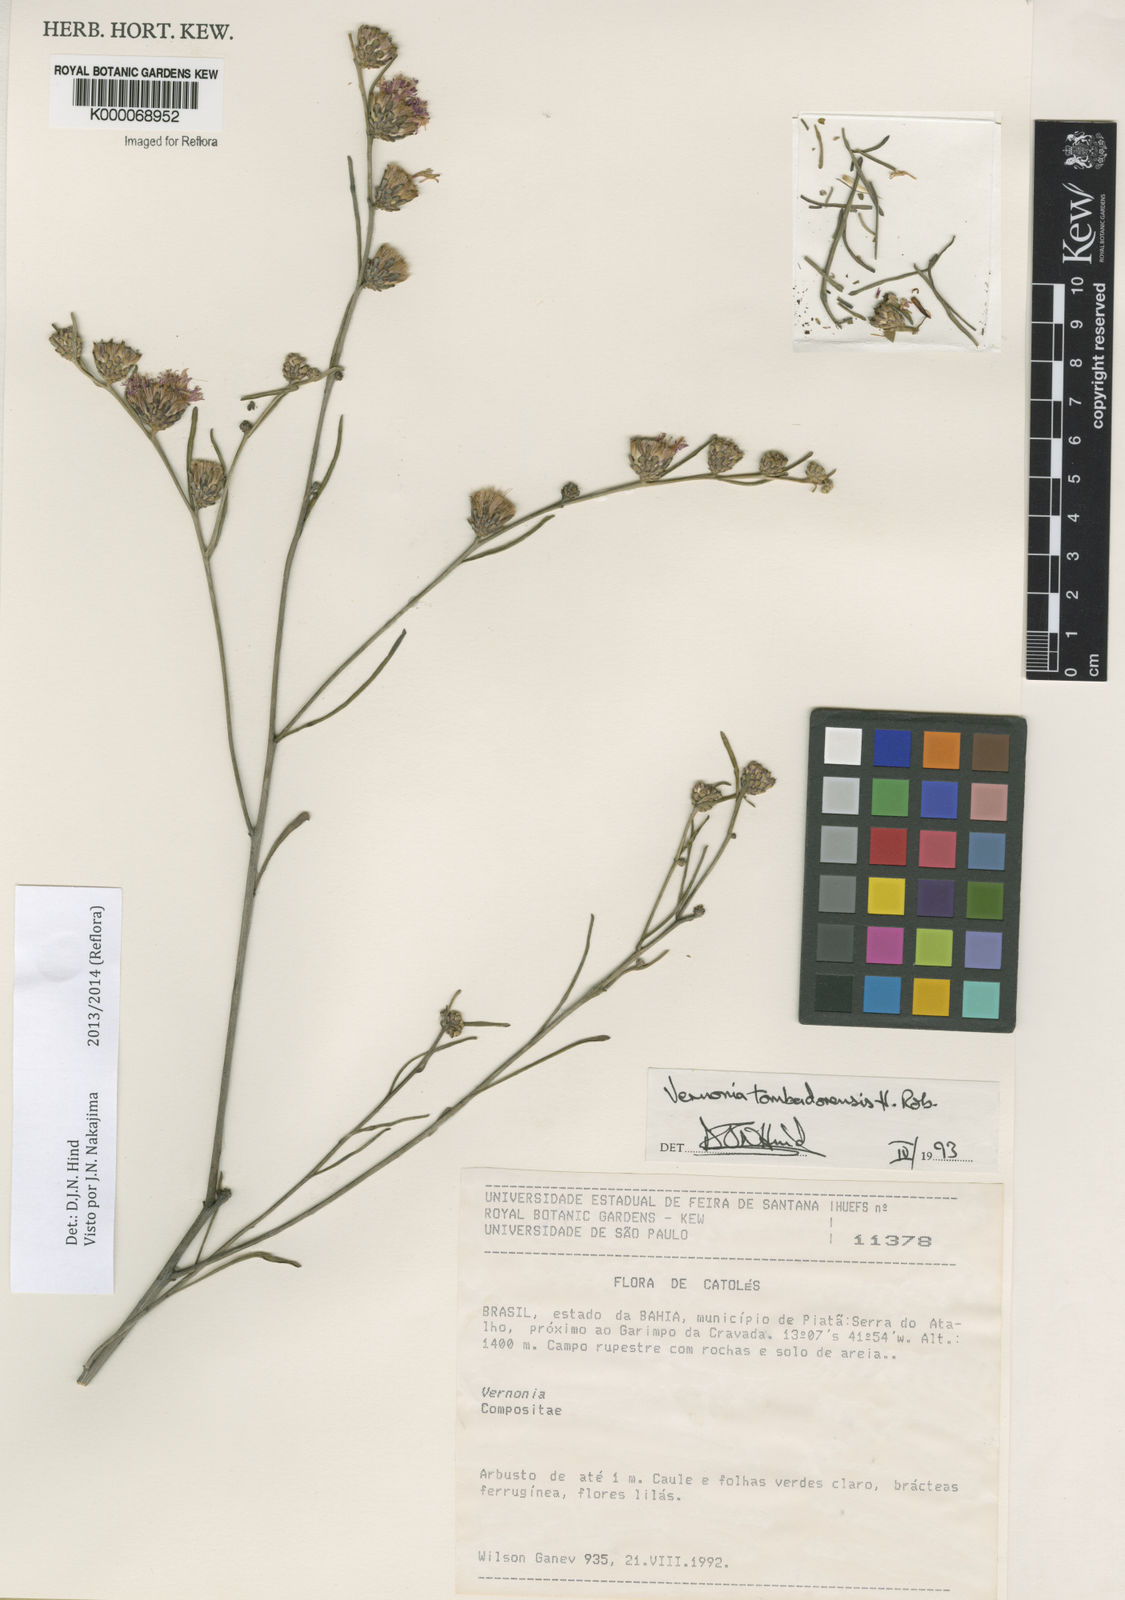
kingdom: Plantae
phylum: Tracheophyta
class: Magnoliopsida
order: Asterales
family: Asteraceae
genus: Lepidaploa
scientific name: Lepidaploa tombadorensis
